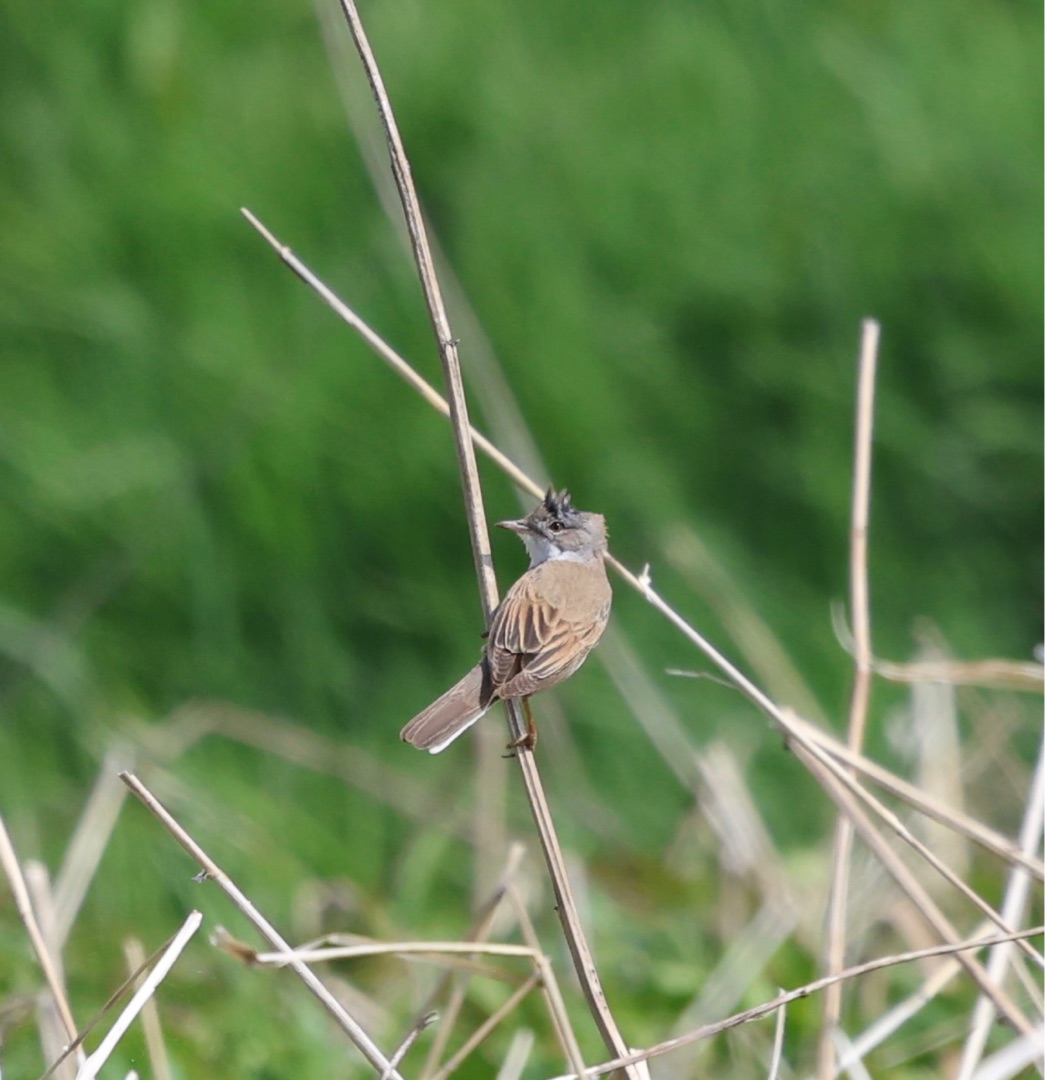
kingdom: Animalia
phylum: Chordata
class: Aves
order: Passeriformes
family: Sylviidae
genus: Sylvia
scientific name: Sylvia communis
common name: Tornsanger
